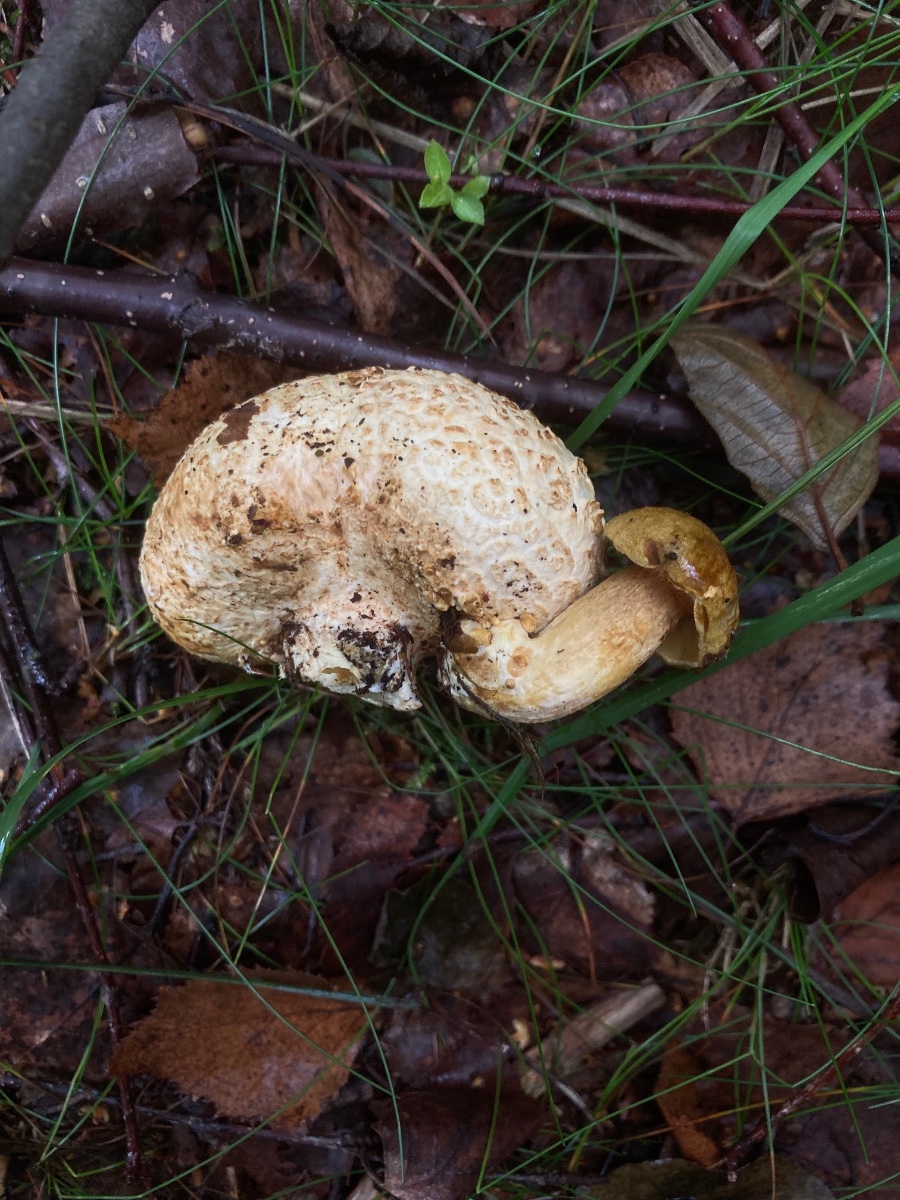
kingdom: Fungi
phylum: Basidiomycota
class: Agaricomycetes
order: Boletales
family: Boletaceae
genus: Pseudoboletus
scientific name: Pseudoboletus parasiticus
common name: snyltende rørhat
